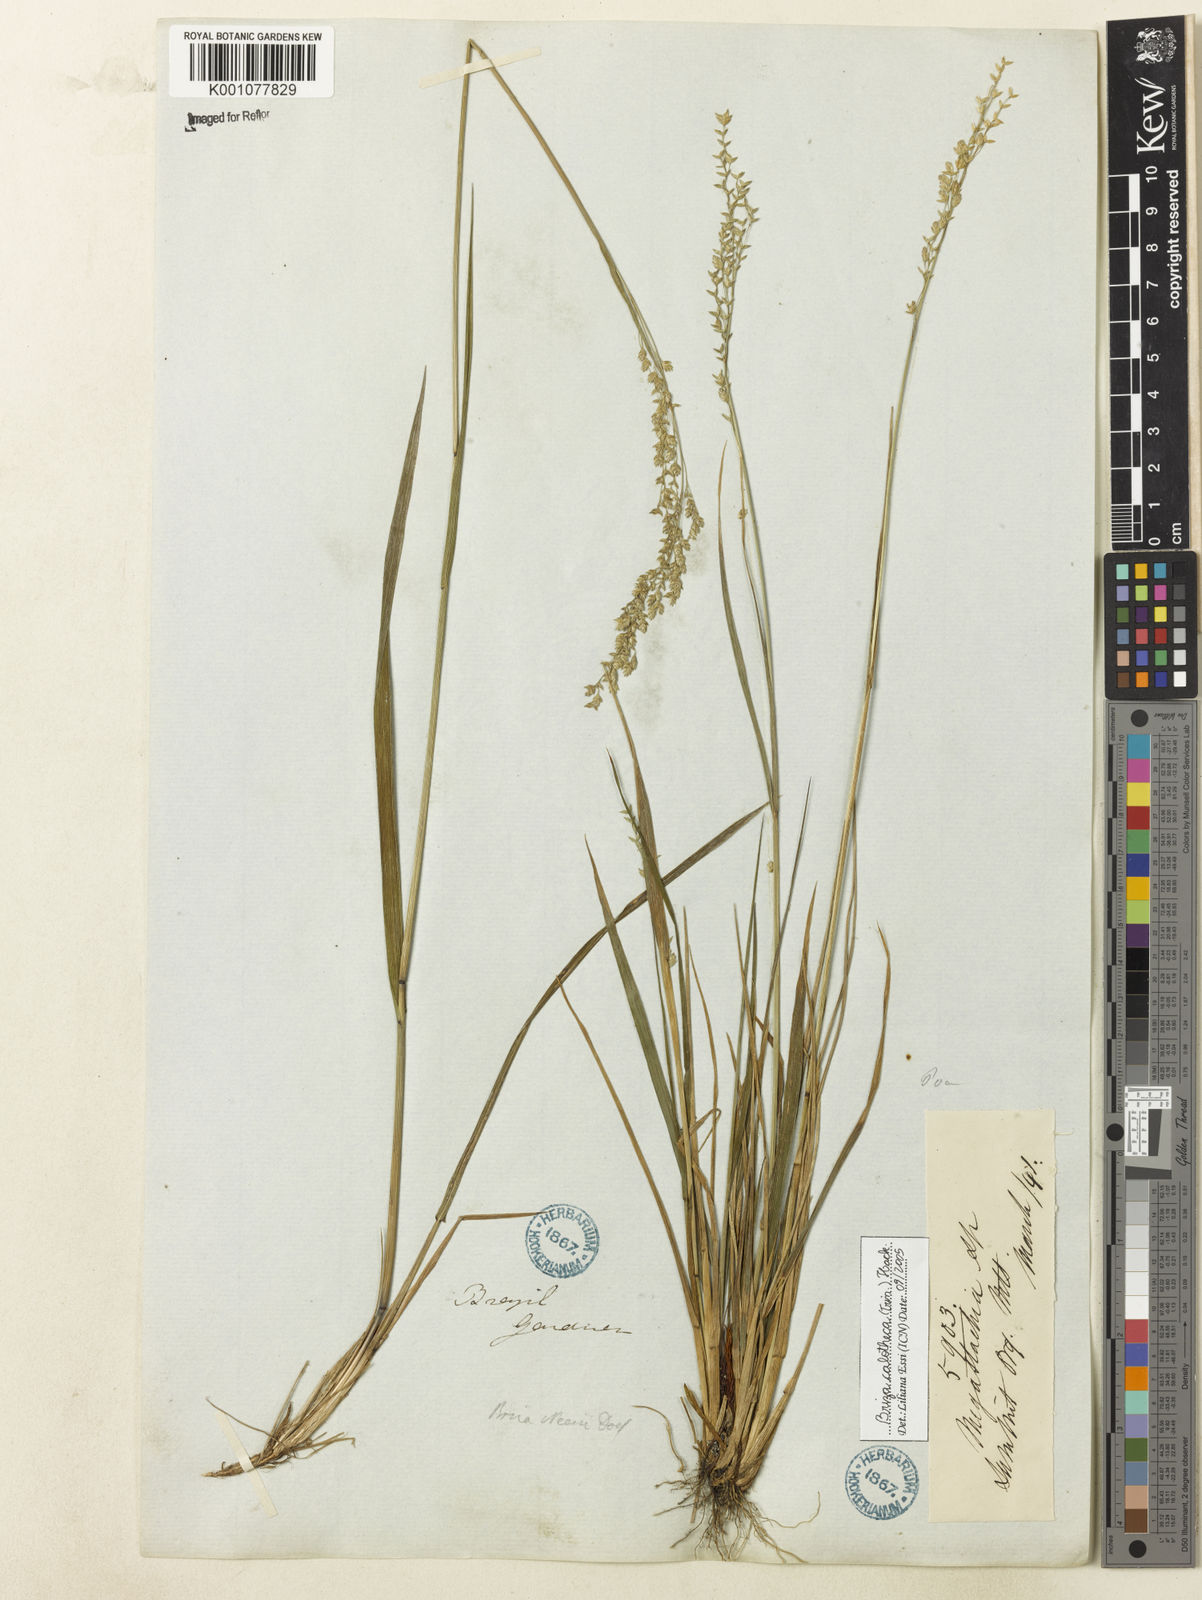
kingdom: Plantae
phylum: Tracheophyta
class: Liliopsida
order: Poales
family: Poaceae
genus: Poidium
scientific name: Poidium calotheca
